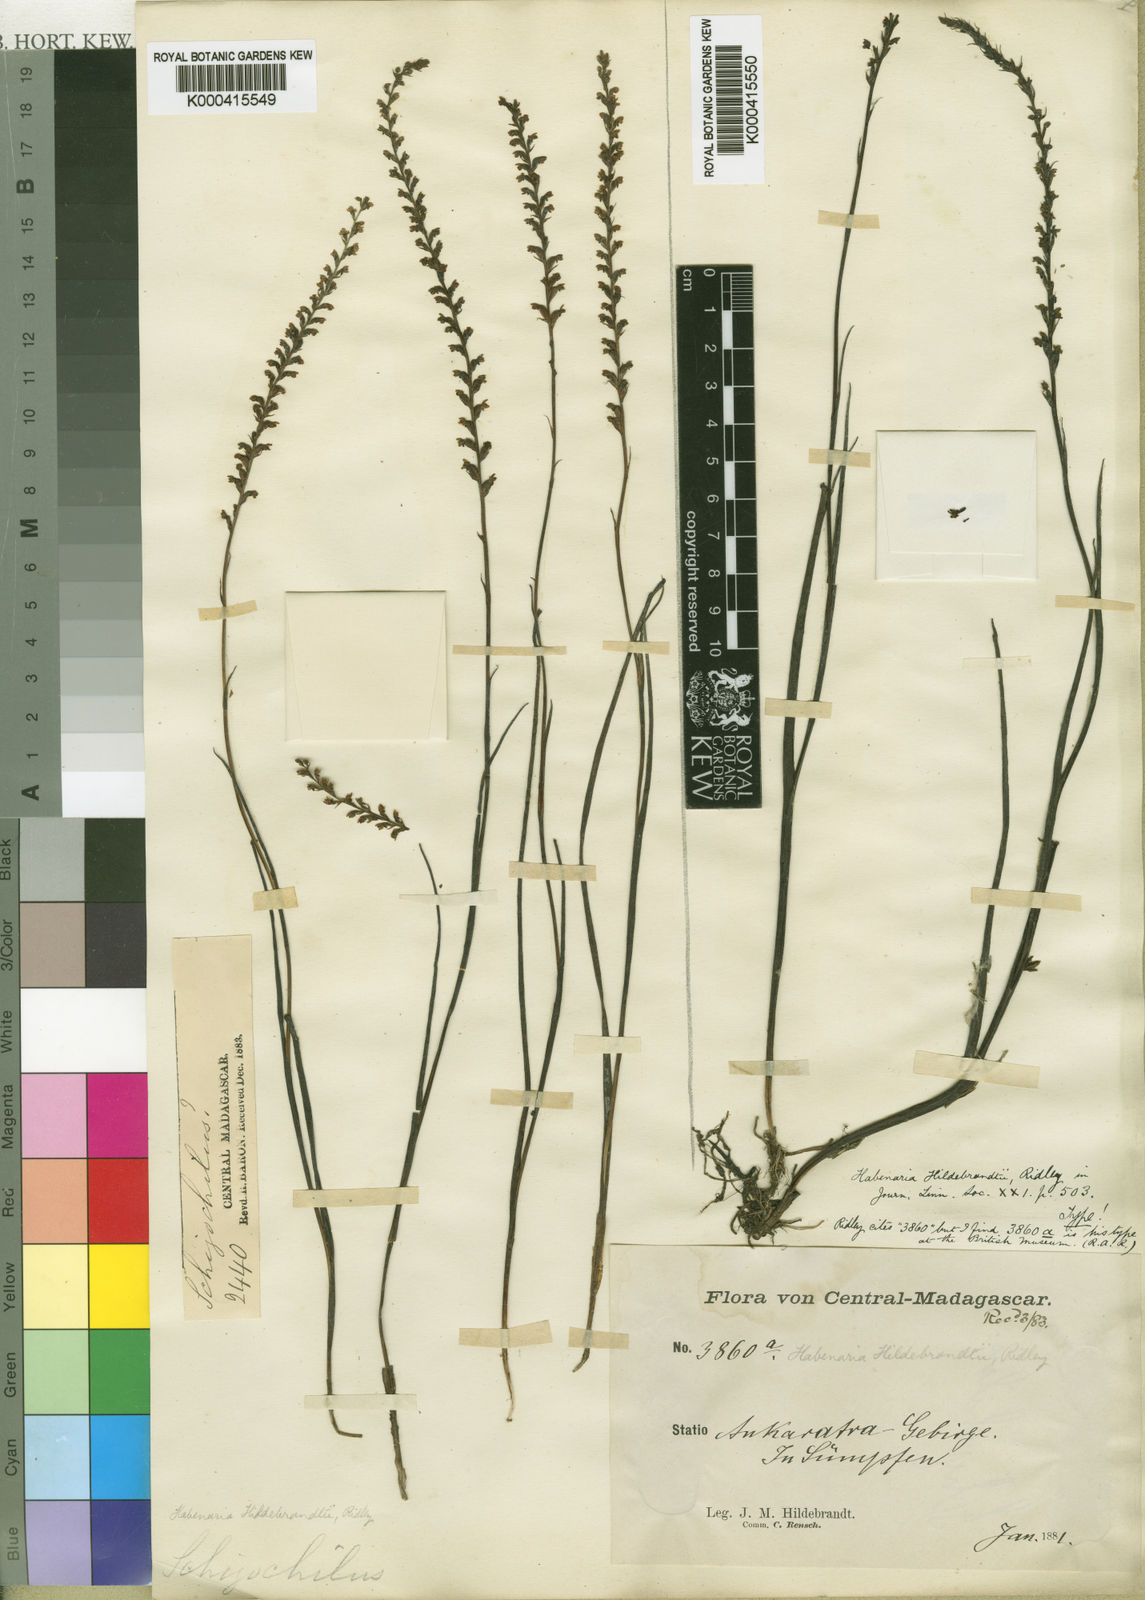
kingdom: Plantae
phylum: Tracheophyta
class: Liliopsida
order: Asparagales
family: Orchidaceae
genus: Tylostigma
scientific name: Tylostigma hildebrandtii
